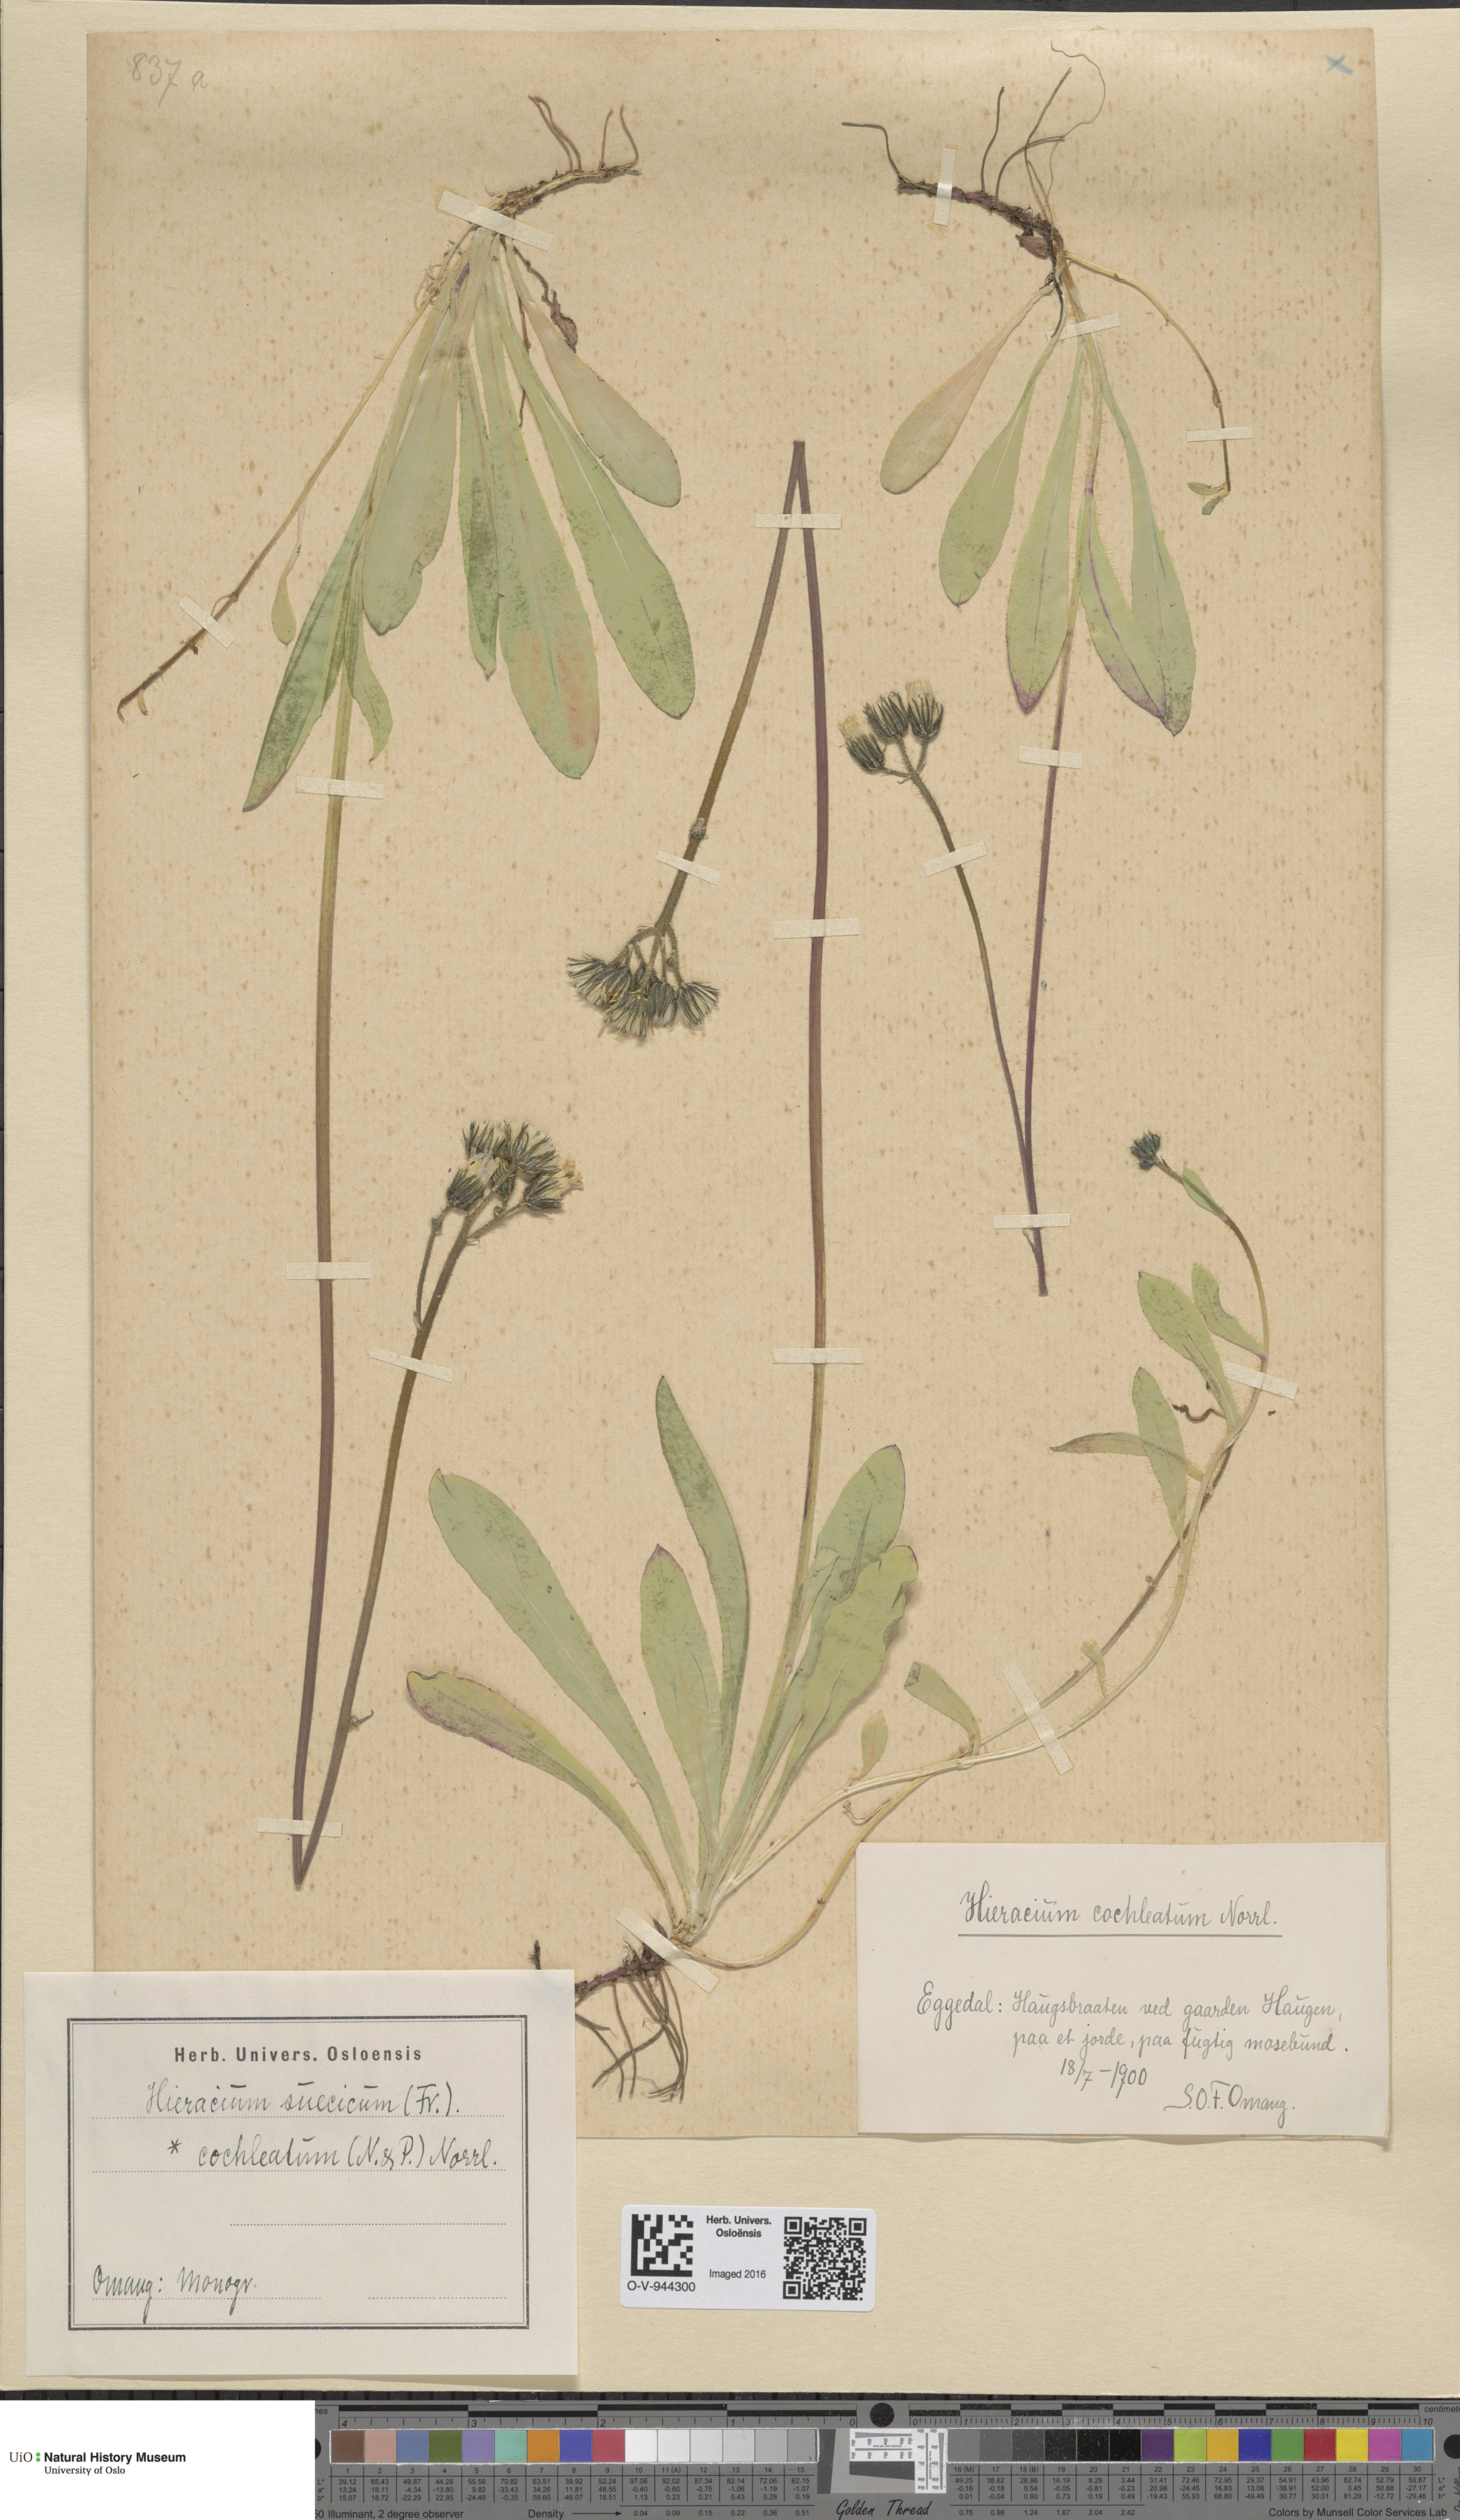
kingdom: Plantae
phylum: Tracheophyta
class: Magnoliopsida
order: Asterales
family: Asteraceae
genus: Pilosella
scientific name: Pilosella dubia
